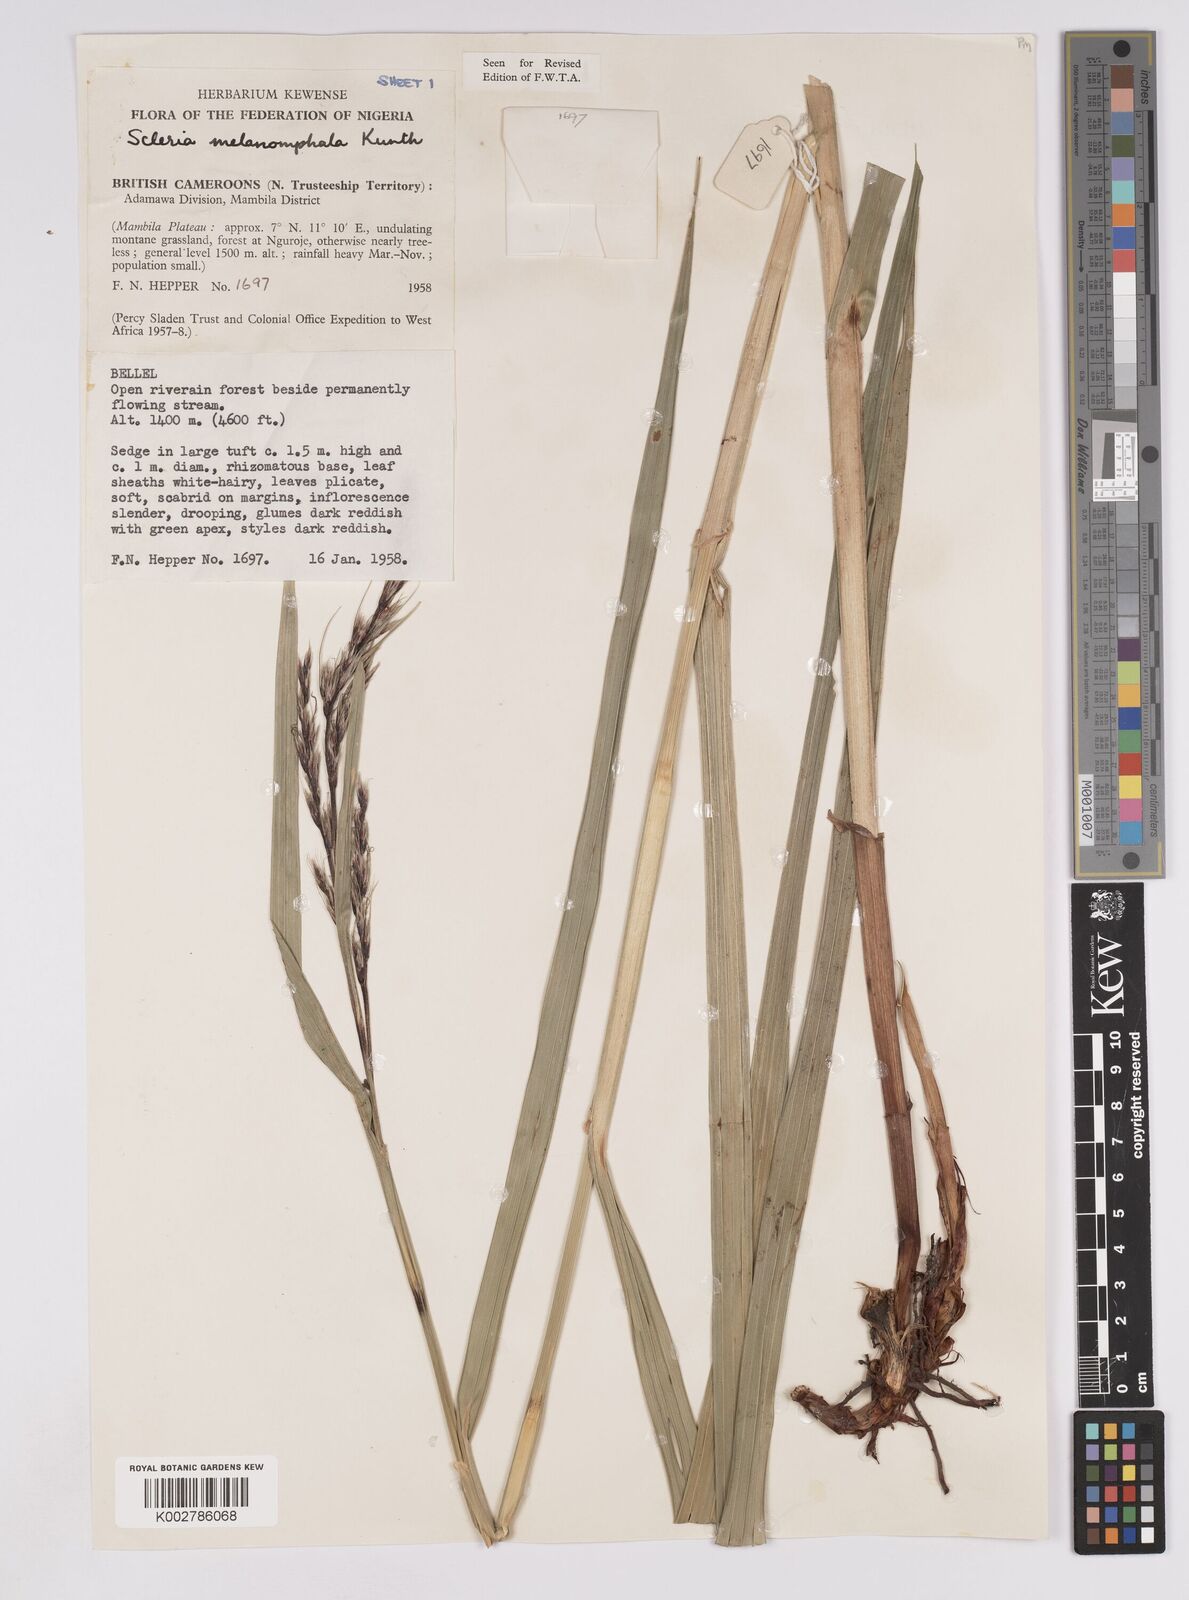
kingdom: Plantae
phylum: Tracheophyta
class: Liliopsida
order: Poales
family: Cyperaceae
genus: Scleria
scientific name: Scleria melanomphala
